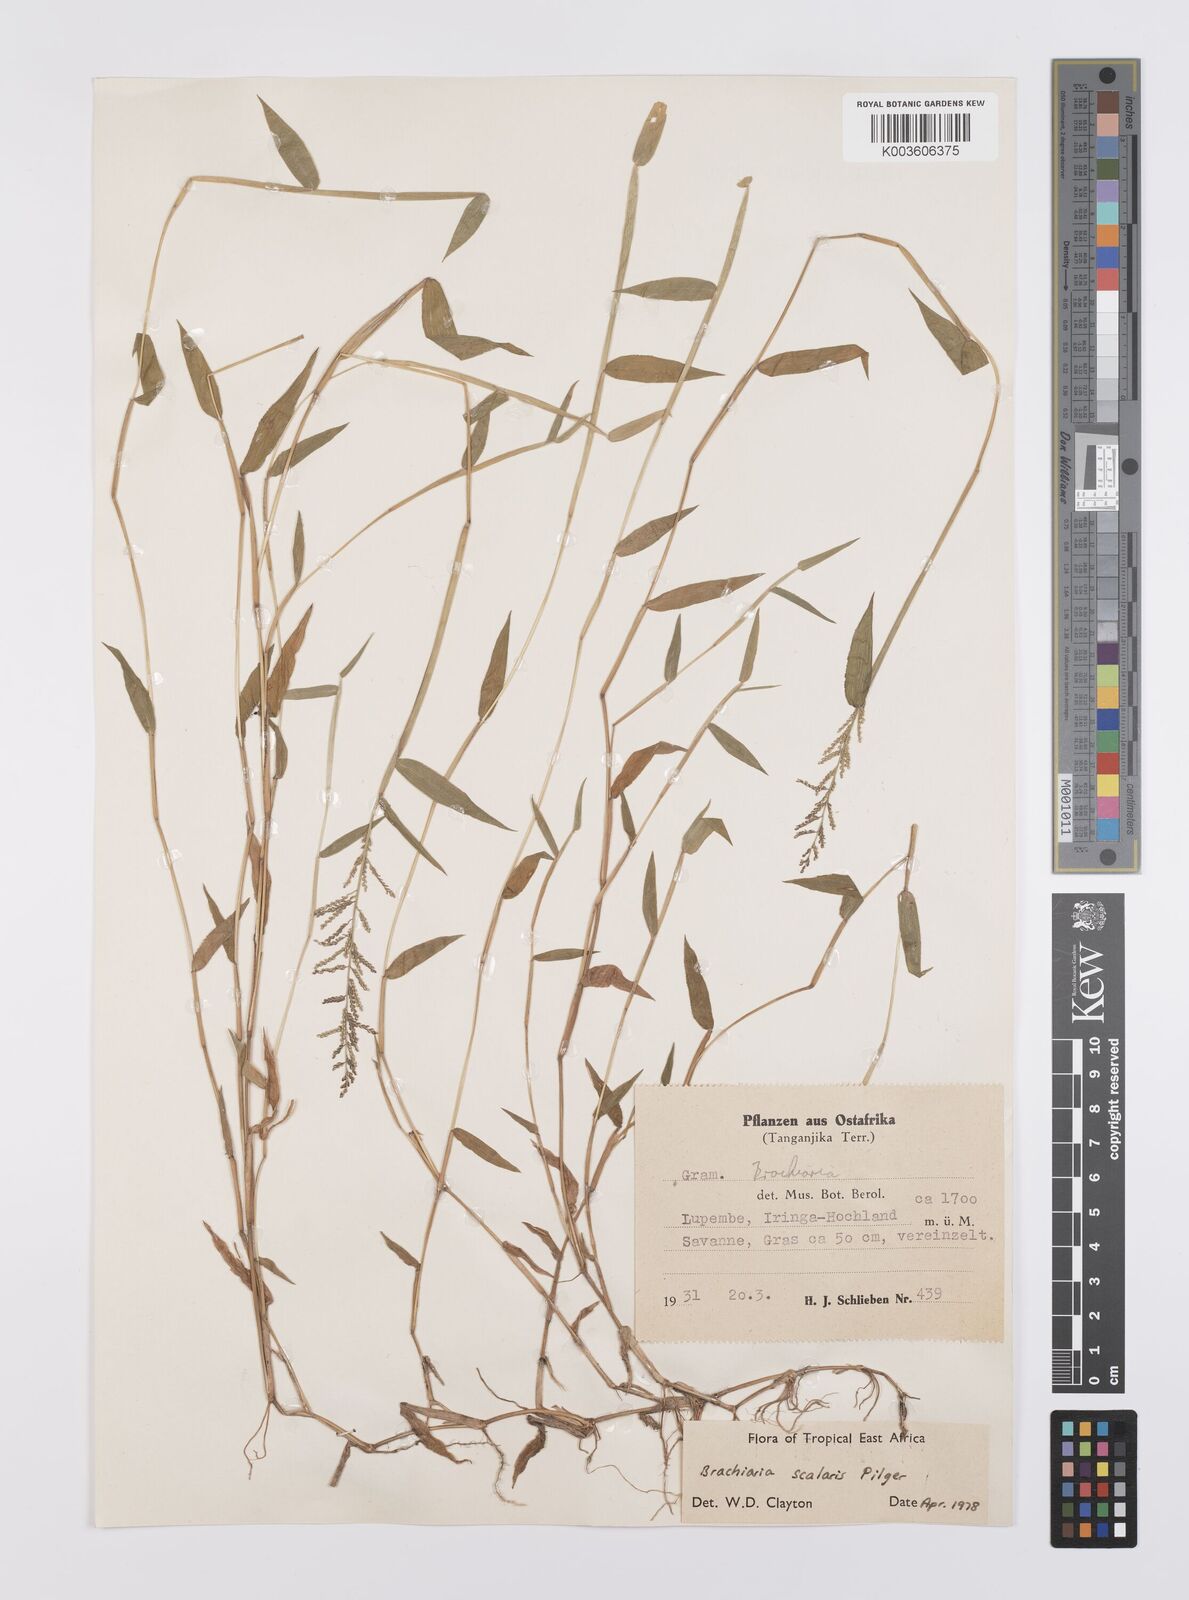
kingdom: Plantae
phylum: Tracheophyta
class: Liliopsida
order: Poales
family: Poaceae
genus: Urochloa
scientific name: Urochloa comata
